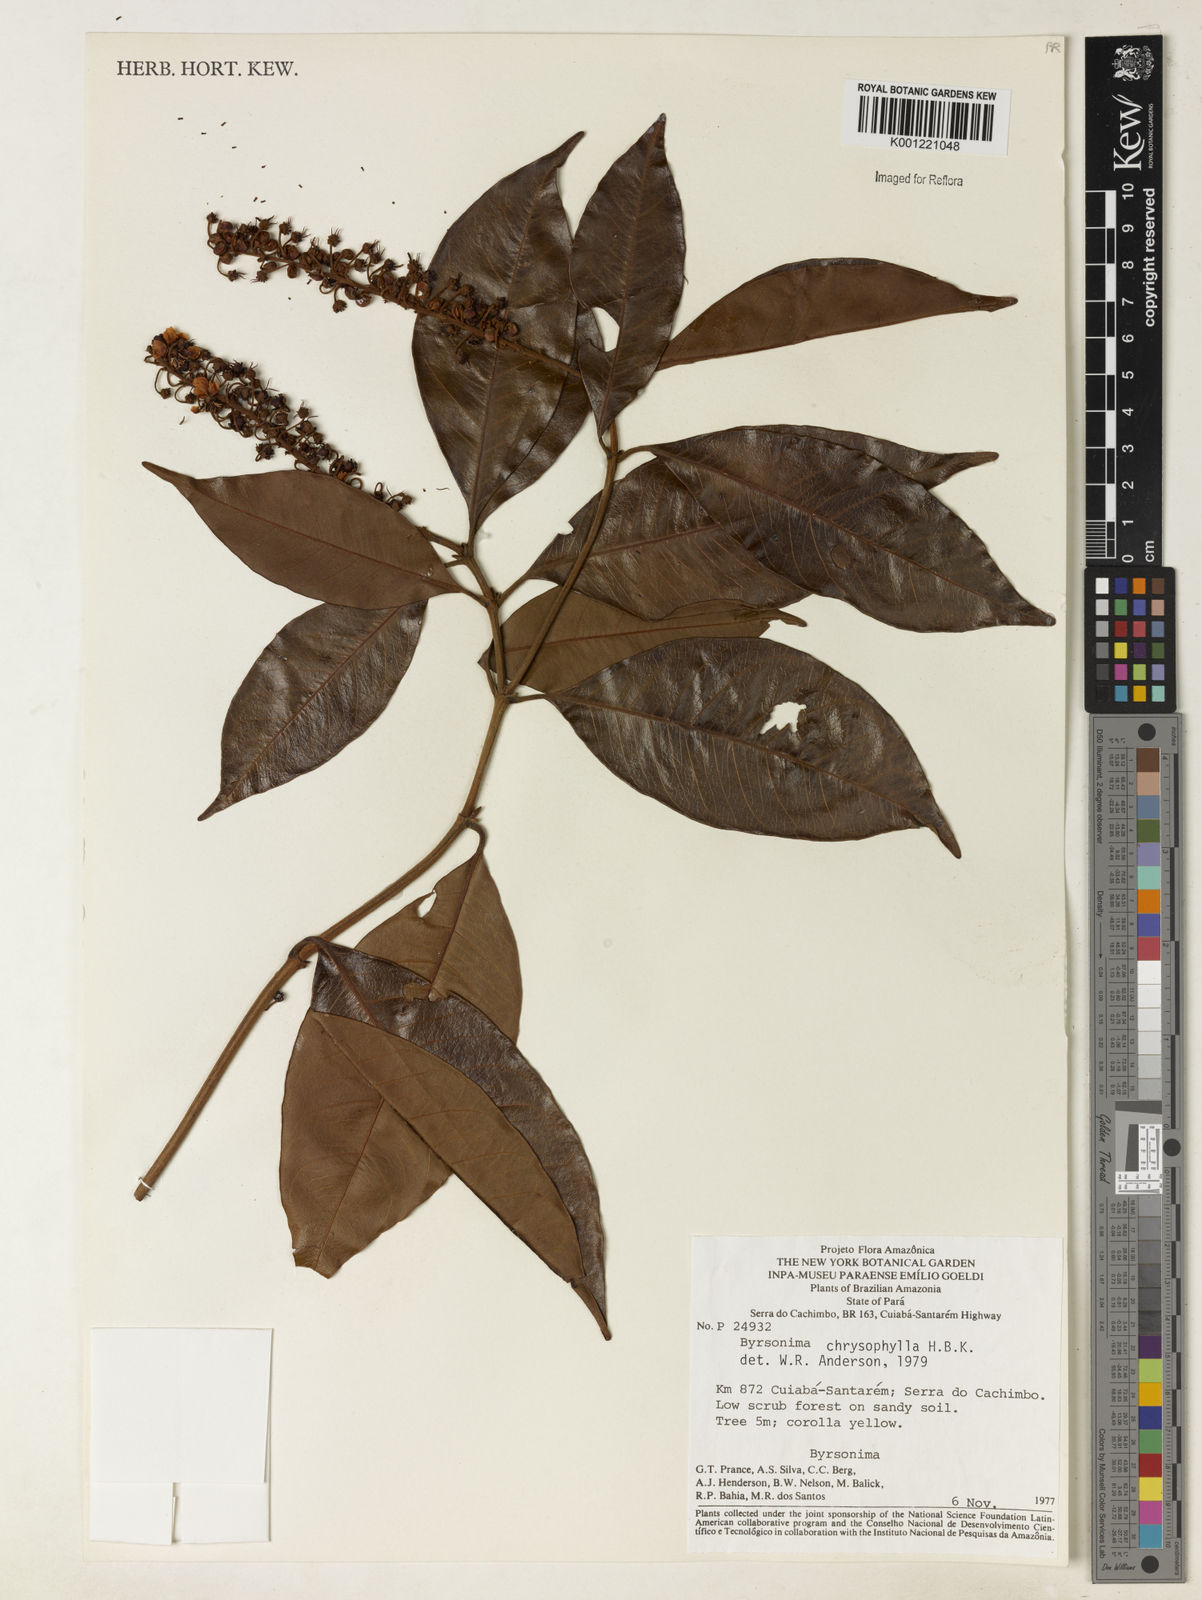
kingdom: Plantae
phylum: Tracheophyta
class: Magnoliopsida
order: Malpighiales
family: Malpighiaceae
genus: Byrsonima
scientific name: Byrsonima chrysophylla
